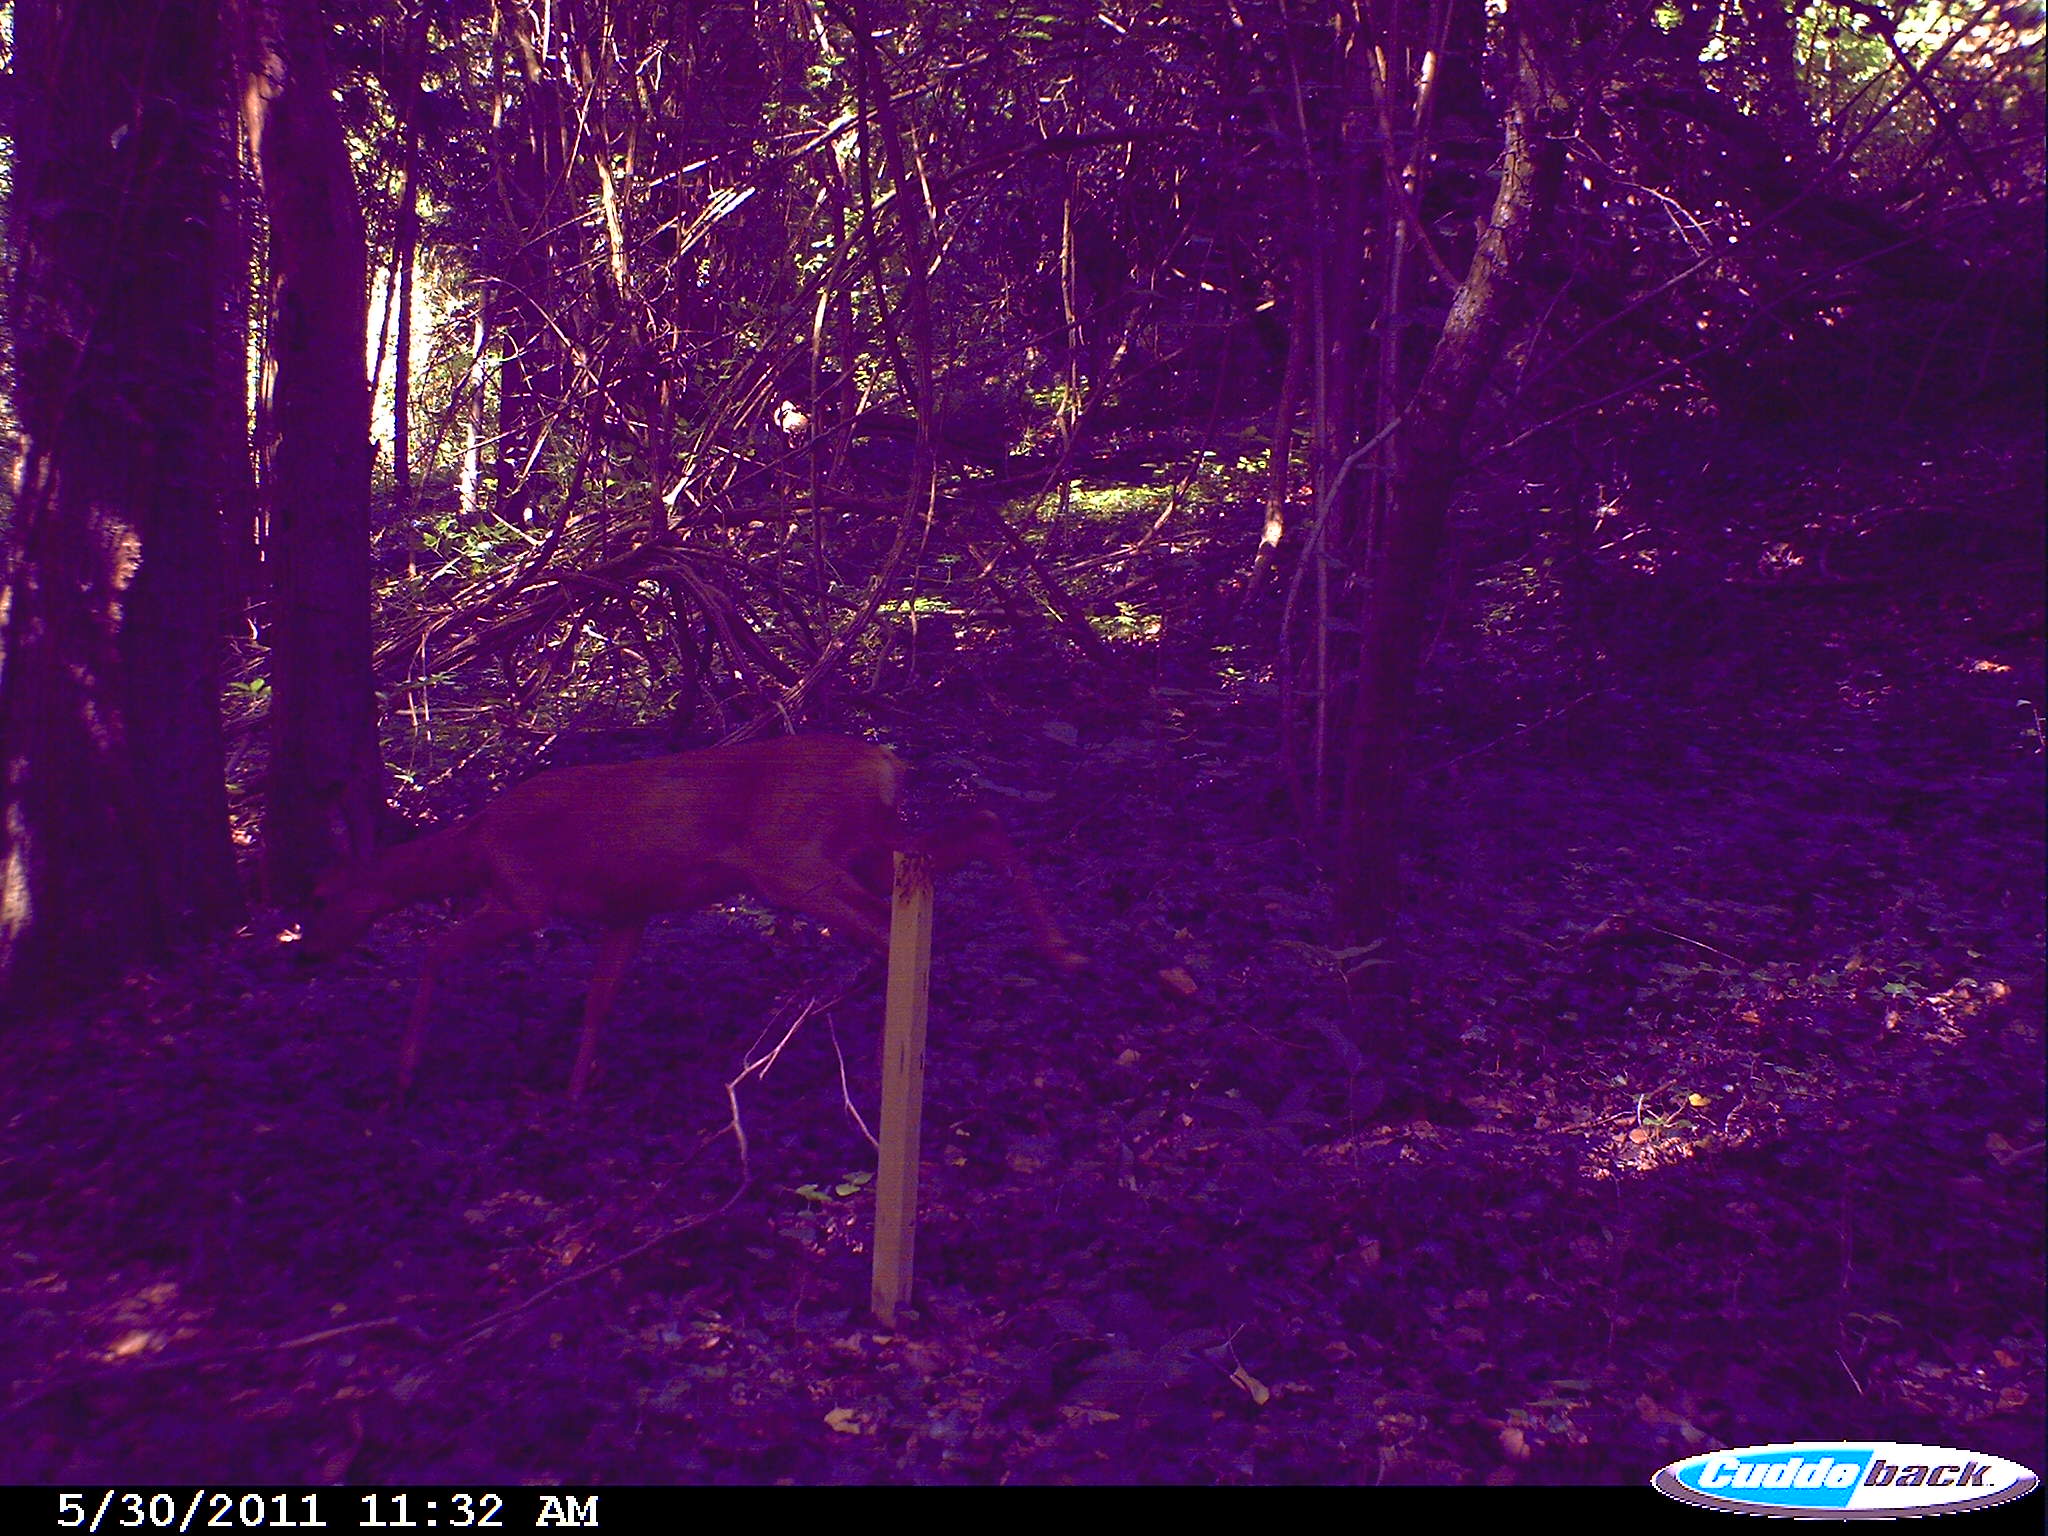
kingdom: Animalia
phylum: Chordata
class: Mammalia
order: Artiodactyla
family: Cervidae
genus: Capreolus
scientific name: Capreolus capreolus
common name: Western roe deer
